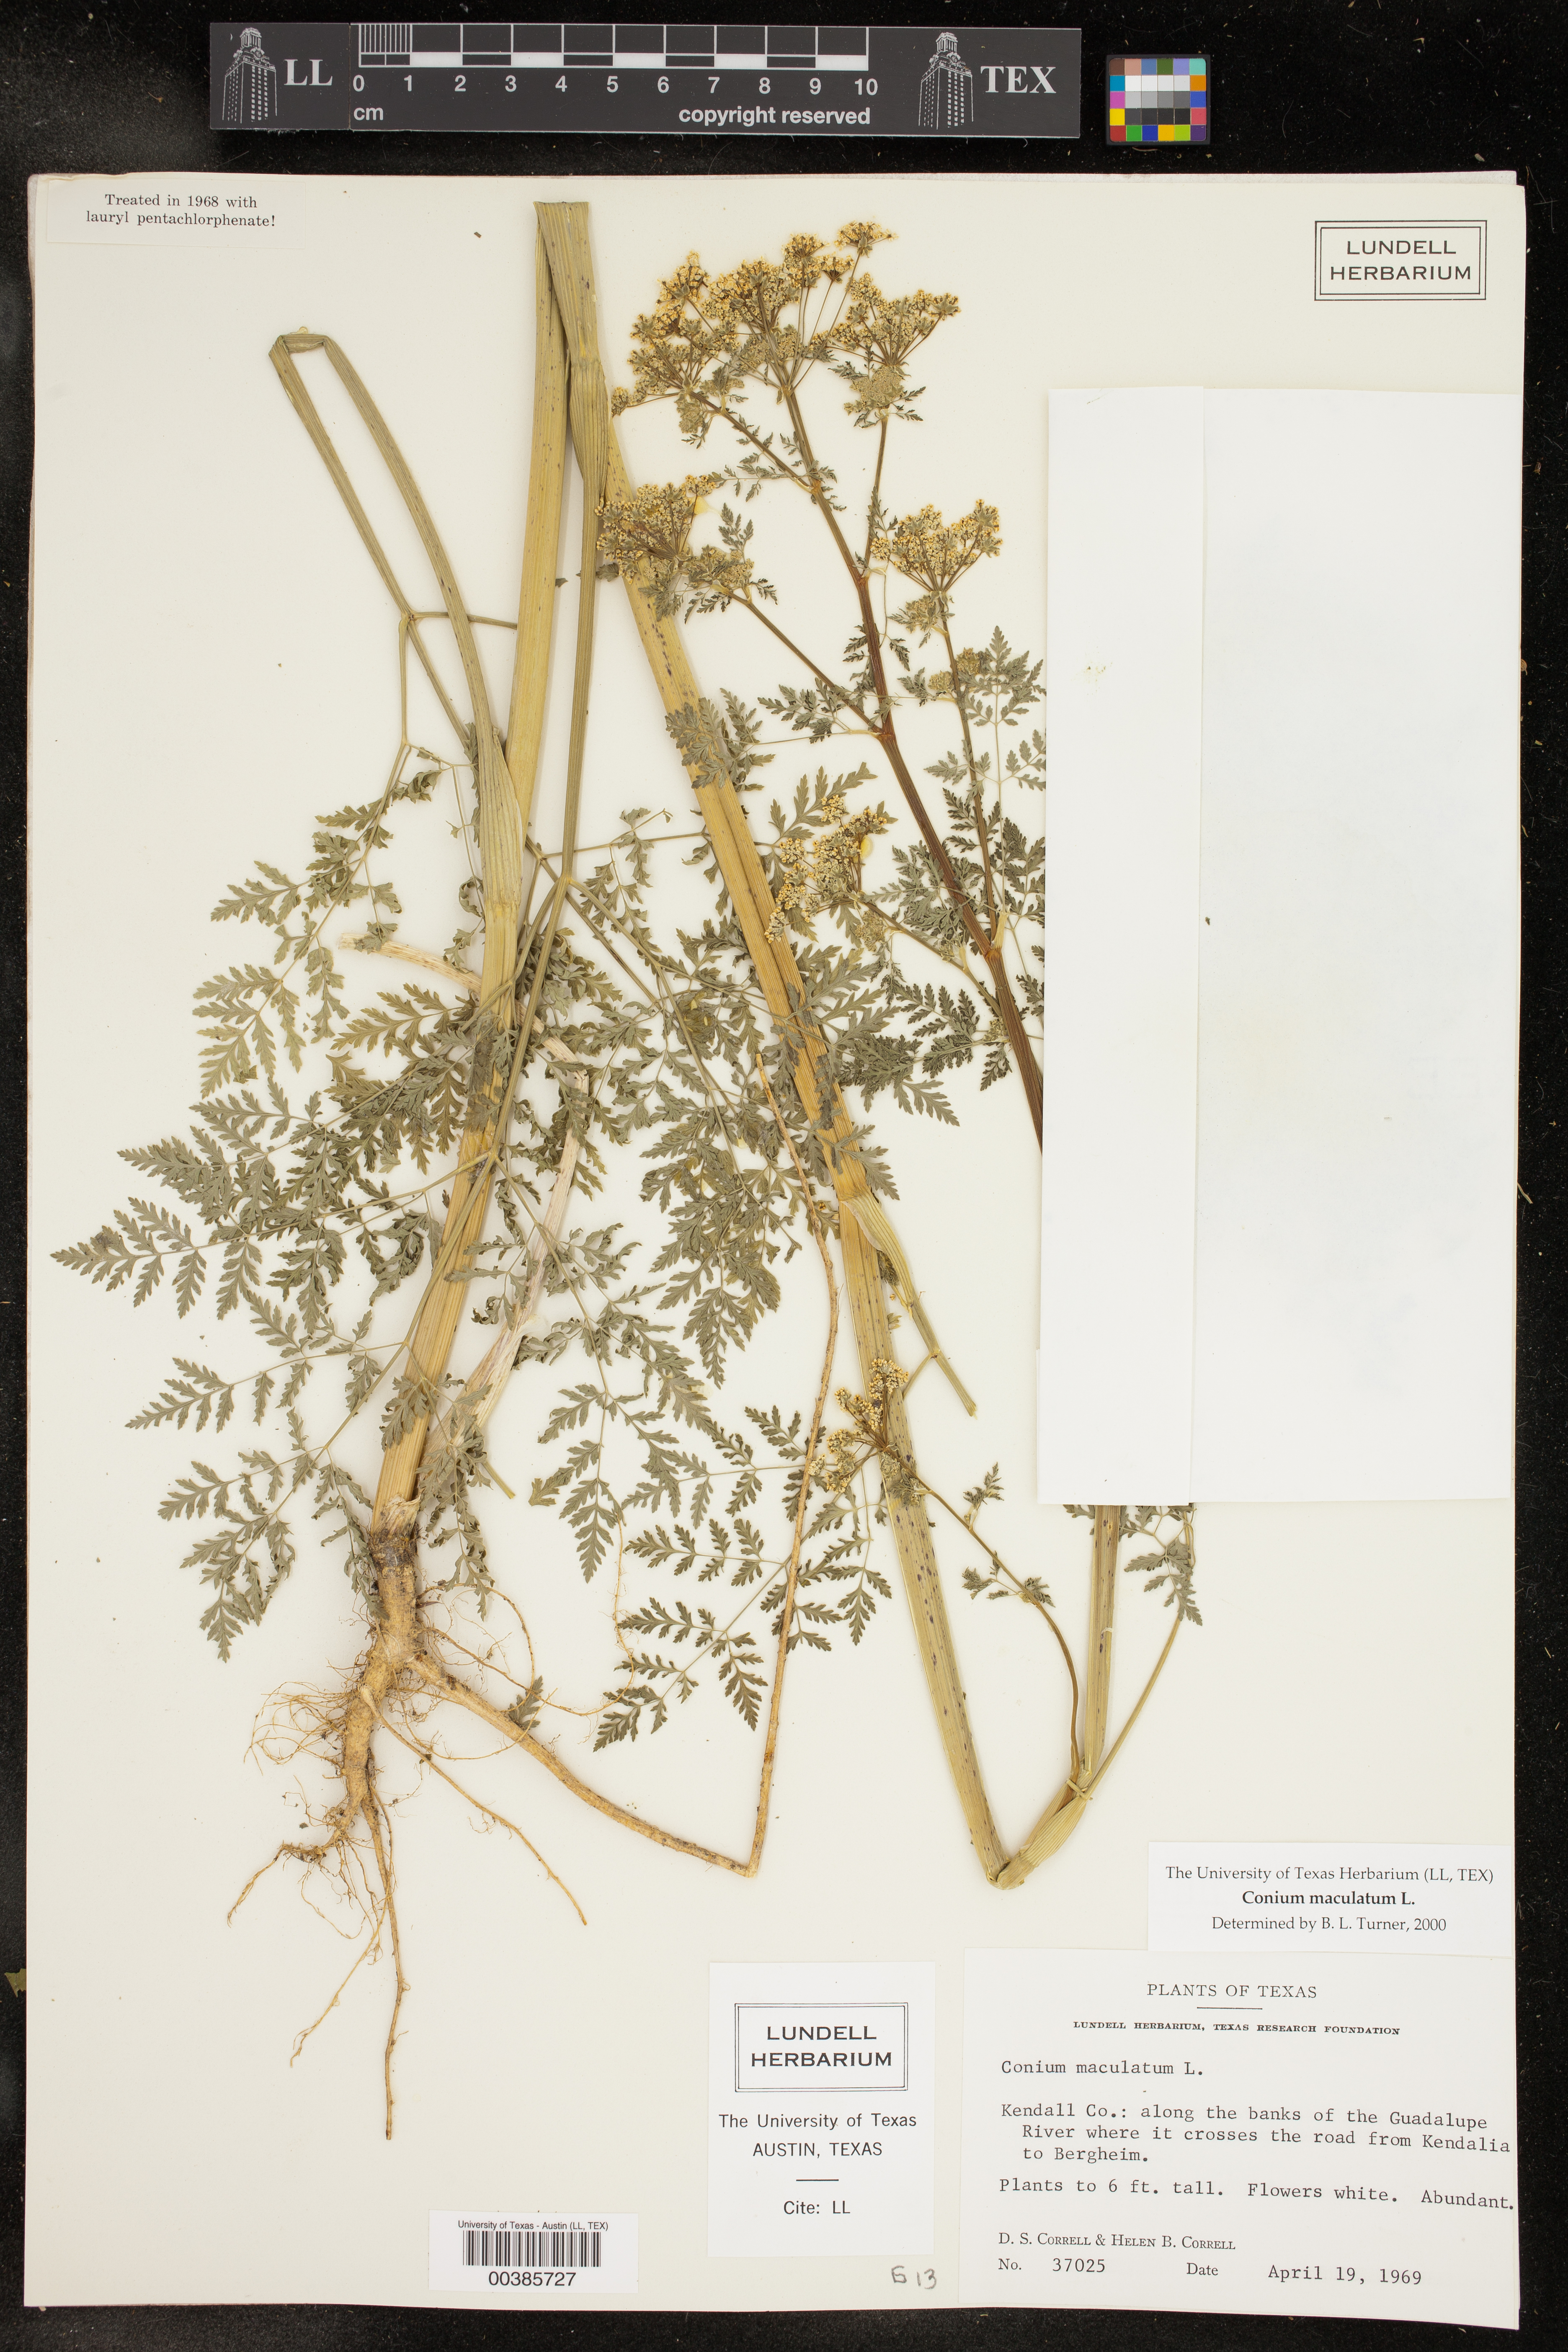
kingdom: Plantae
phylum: Tracheophyta
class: Magnoliopsida
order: Apiales
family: Apiaceae
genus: Conium
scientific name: Conium maculatum
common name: Hemlock
